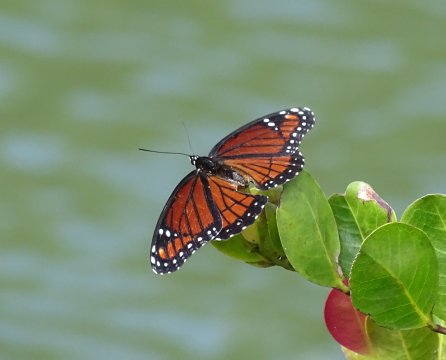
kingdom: Animalia
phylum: Arthropoda
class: Insecta
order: Lepidoptera
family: Nymphalidae
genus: Limenitis
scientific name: Limenitis archippus
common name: Viceroy
